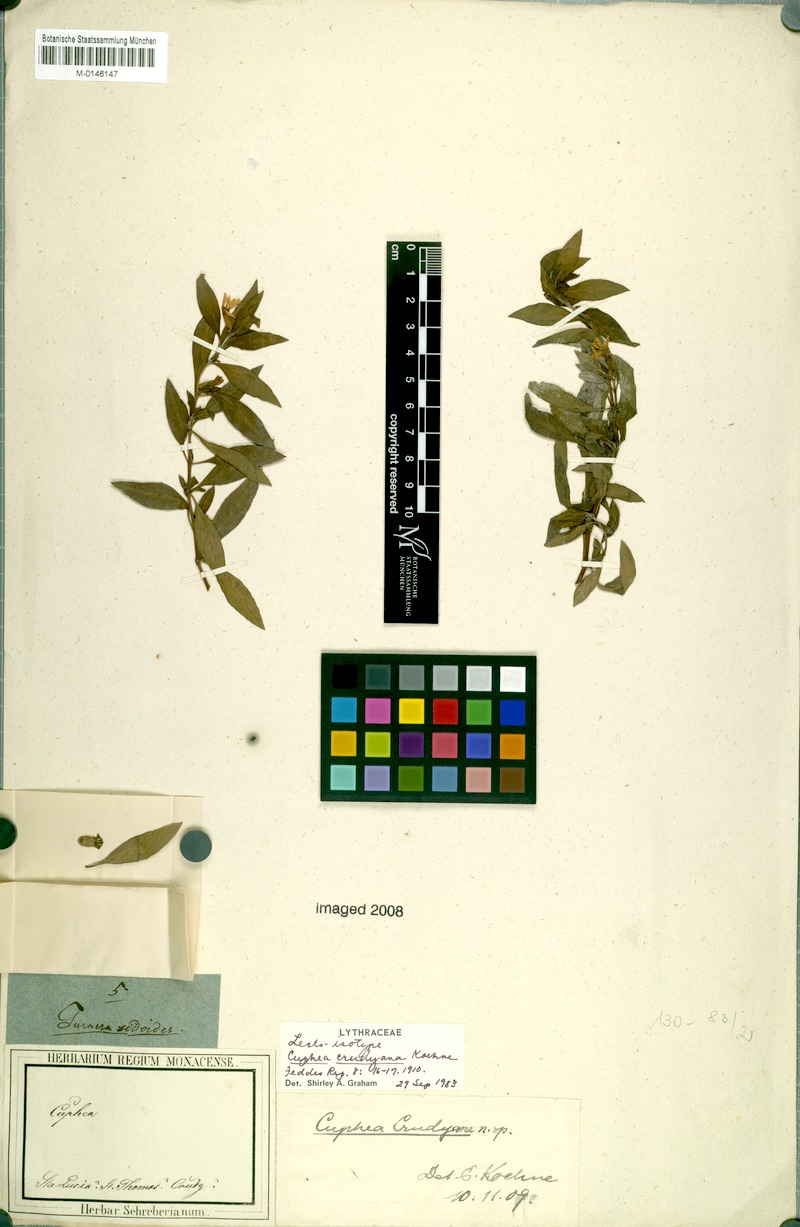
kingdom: Plantae
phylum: Tracheophyta
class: Magnoliopsida
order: Myrtales
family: Lythraceae
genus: Cuphea
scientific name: Cuphea crudyana
